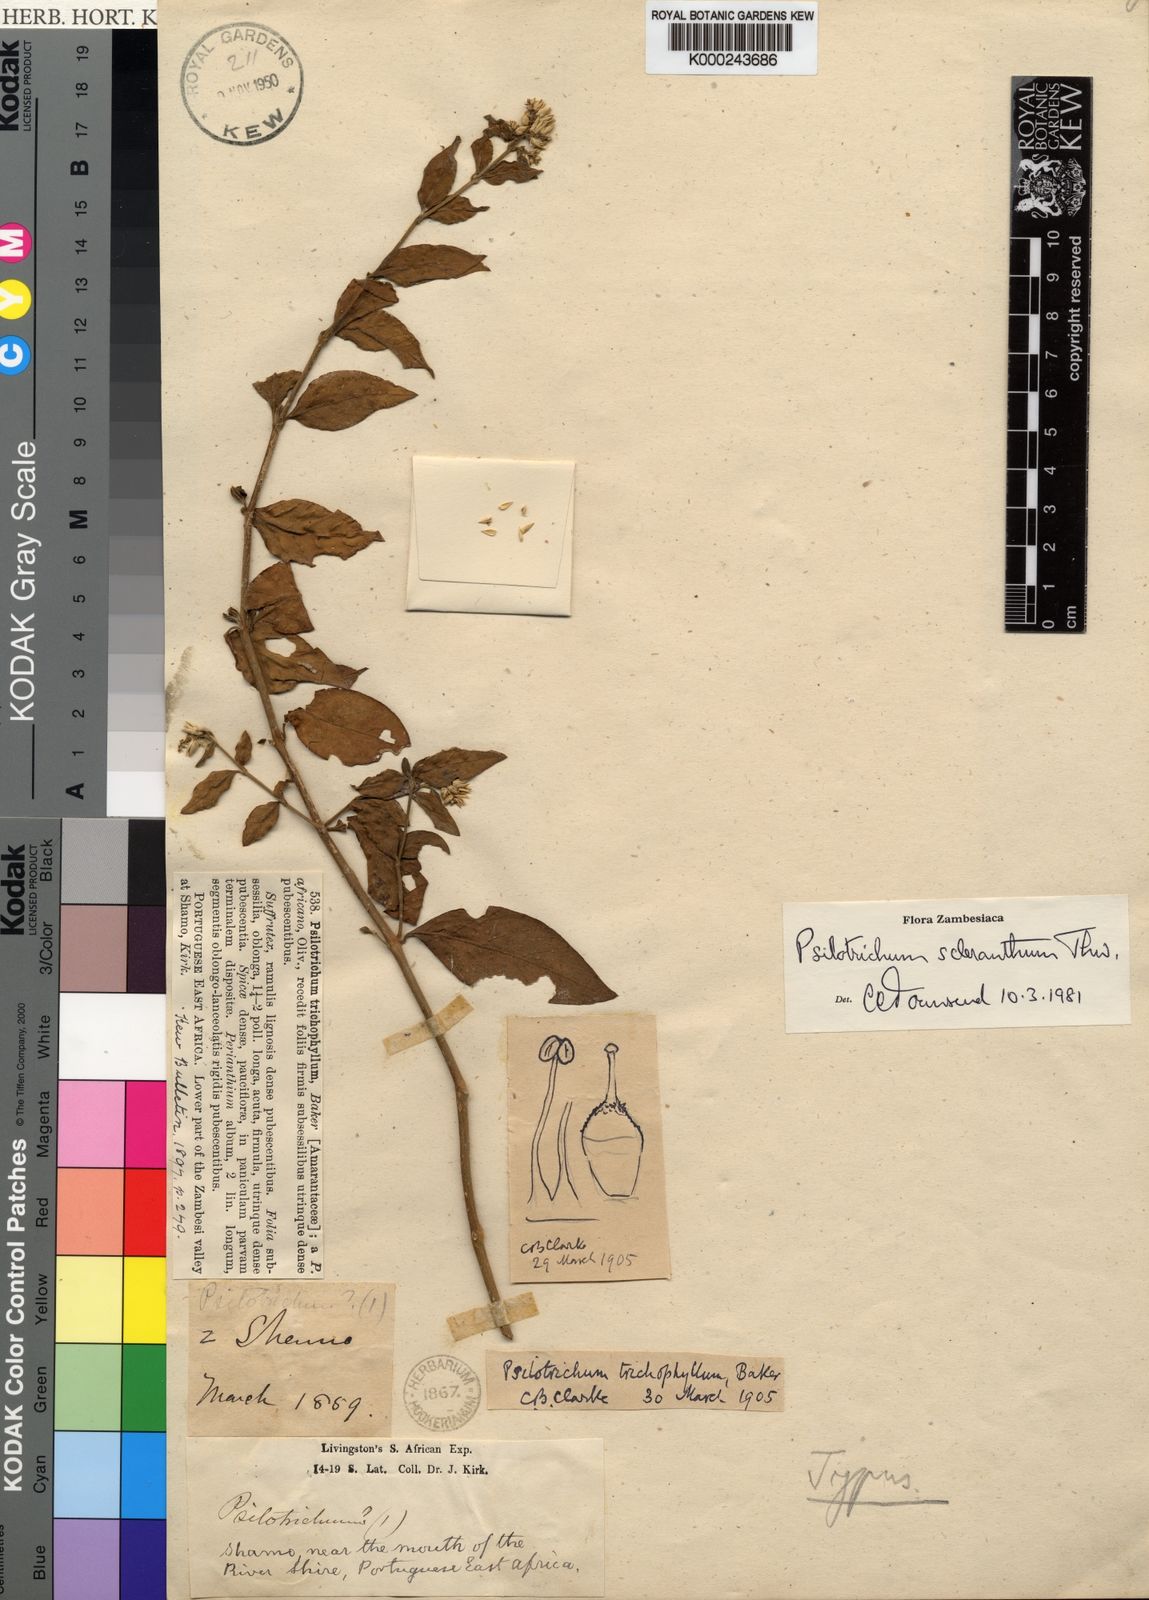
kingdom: Plantae
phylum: Tracheophyta
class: Magnoliopsida
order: Caryophyllales
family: Amaranthaceae
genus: Psilotrichum
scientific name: Psilotrichum scleranthum
